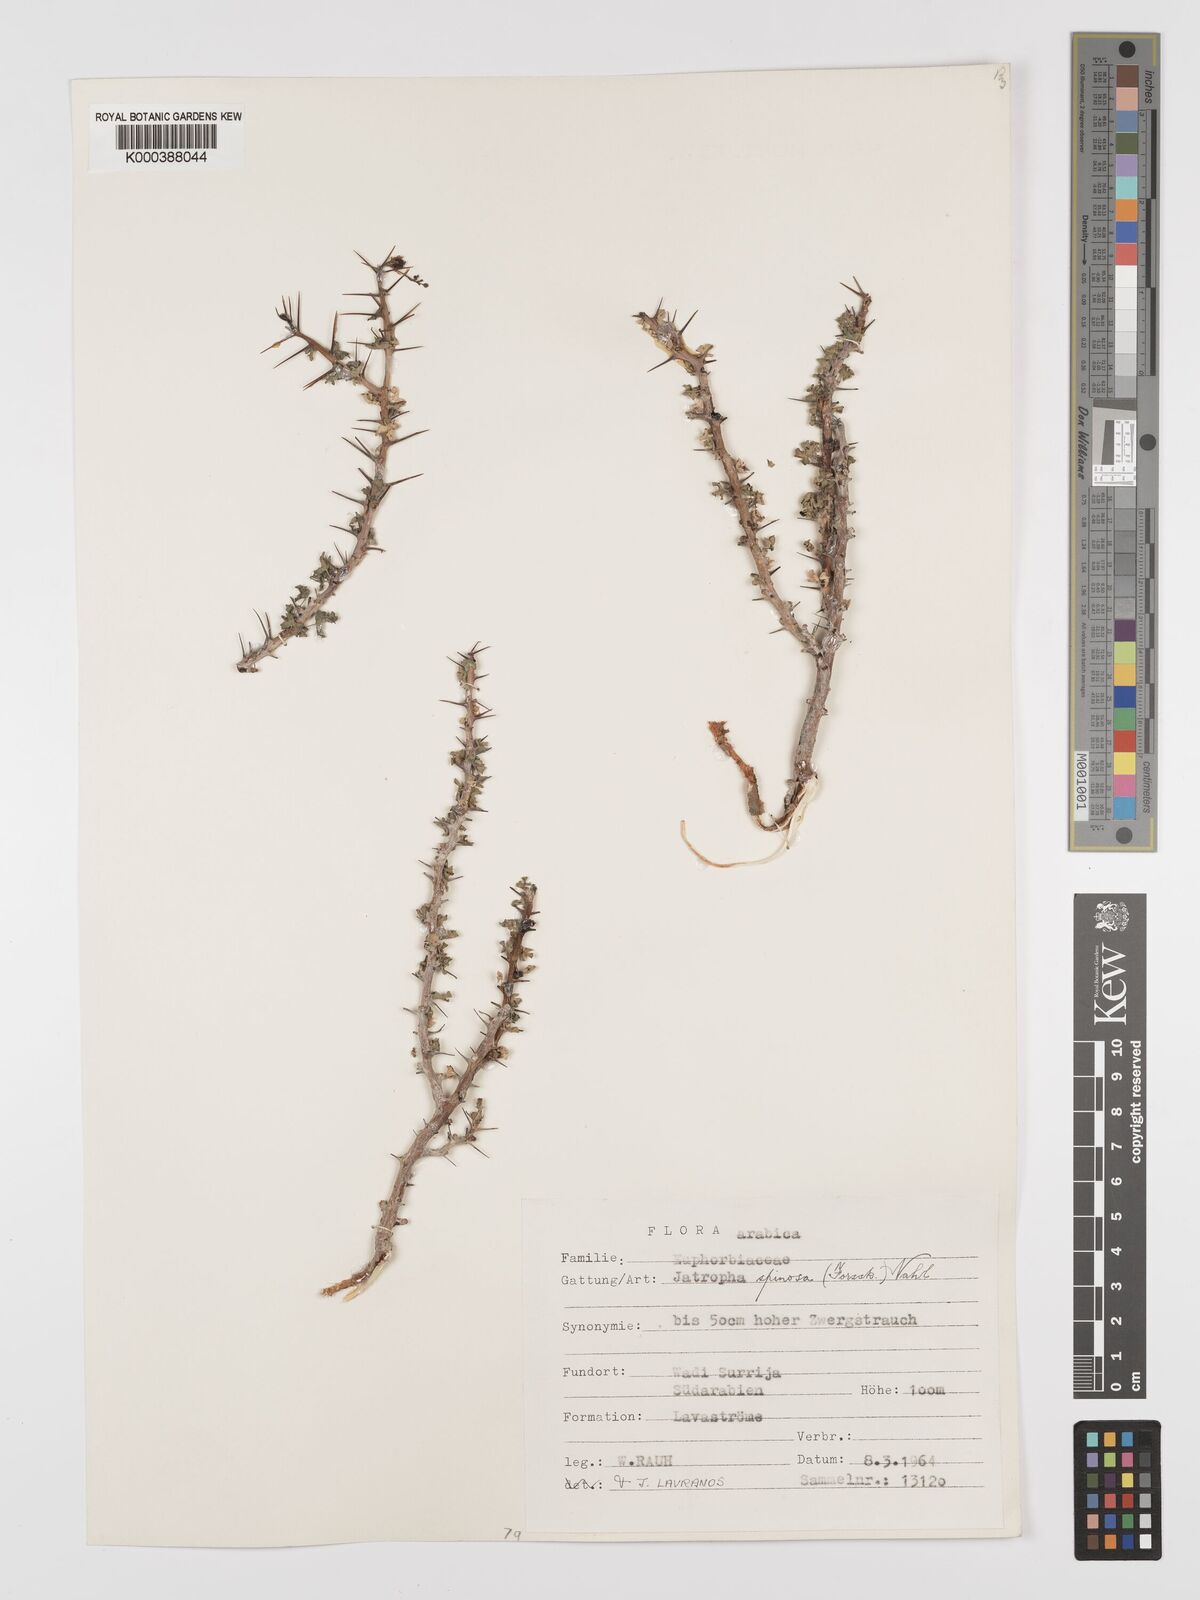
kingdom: Plantae
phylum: Tracheophyta
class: Magnoliopsida
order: Malpighiales
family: Euphorbiaceae
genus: Jatropha
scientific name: Jatropha spinosa
